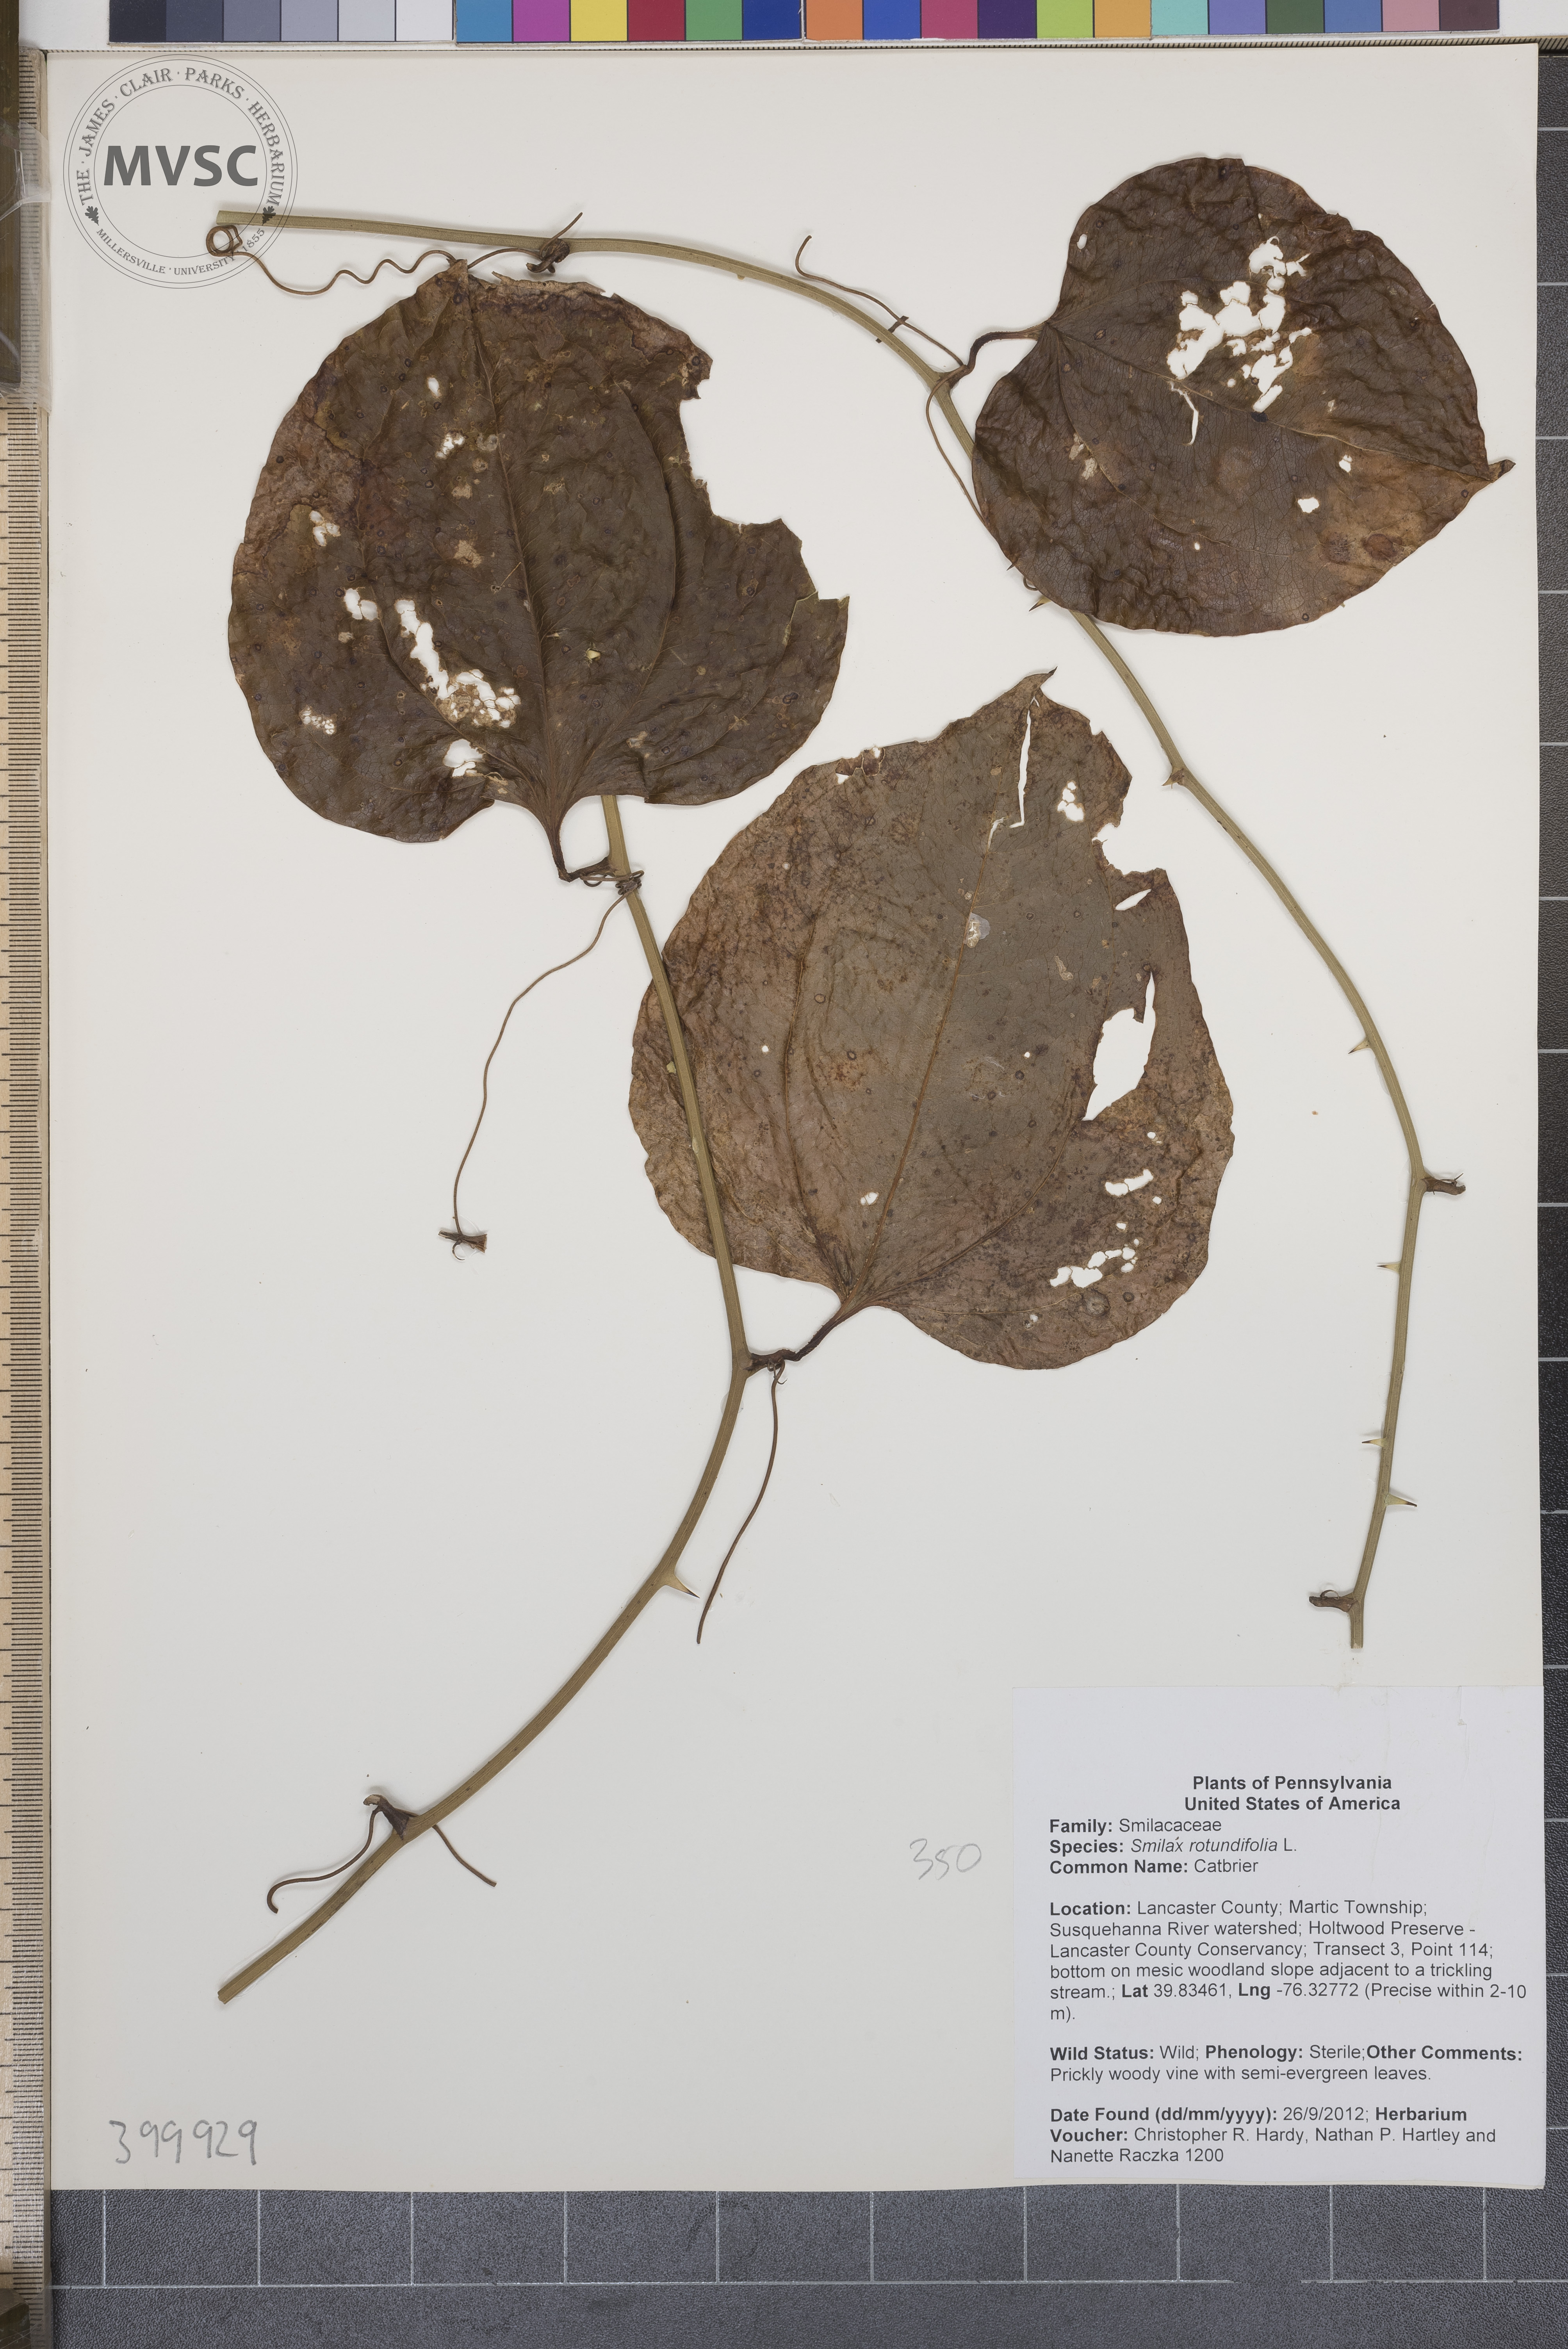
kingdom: Plantae
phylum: Tracheophyta
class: Liliopsida
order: Liliales
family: Smilacaceae
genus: Smilax
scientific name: Smilax rotundifolia
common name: Catbrier
